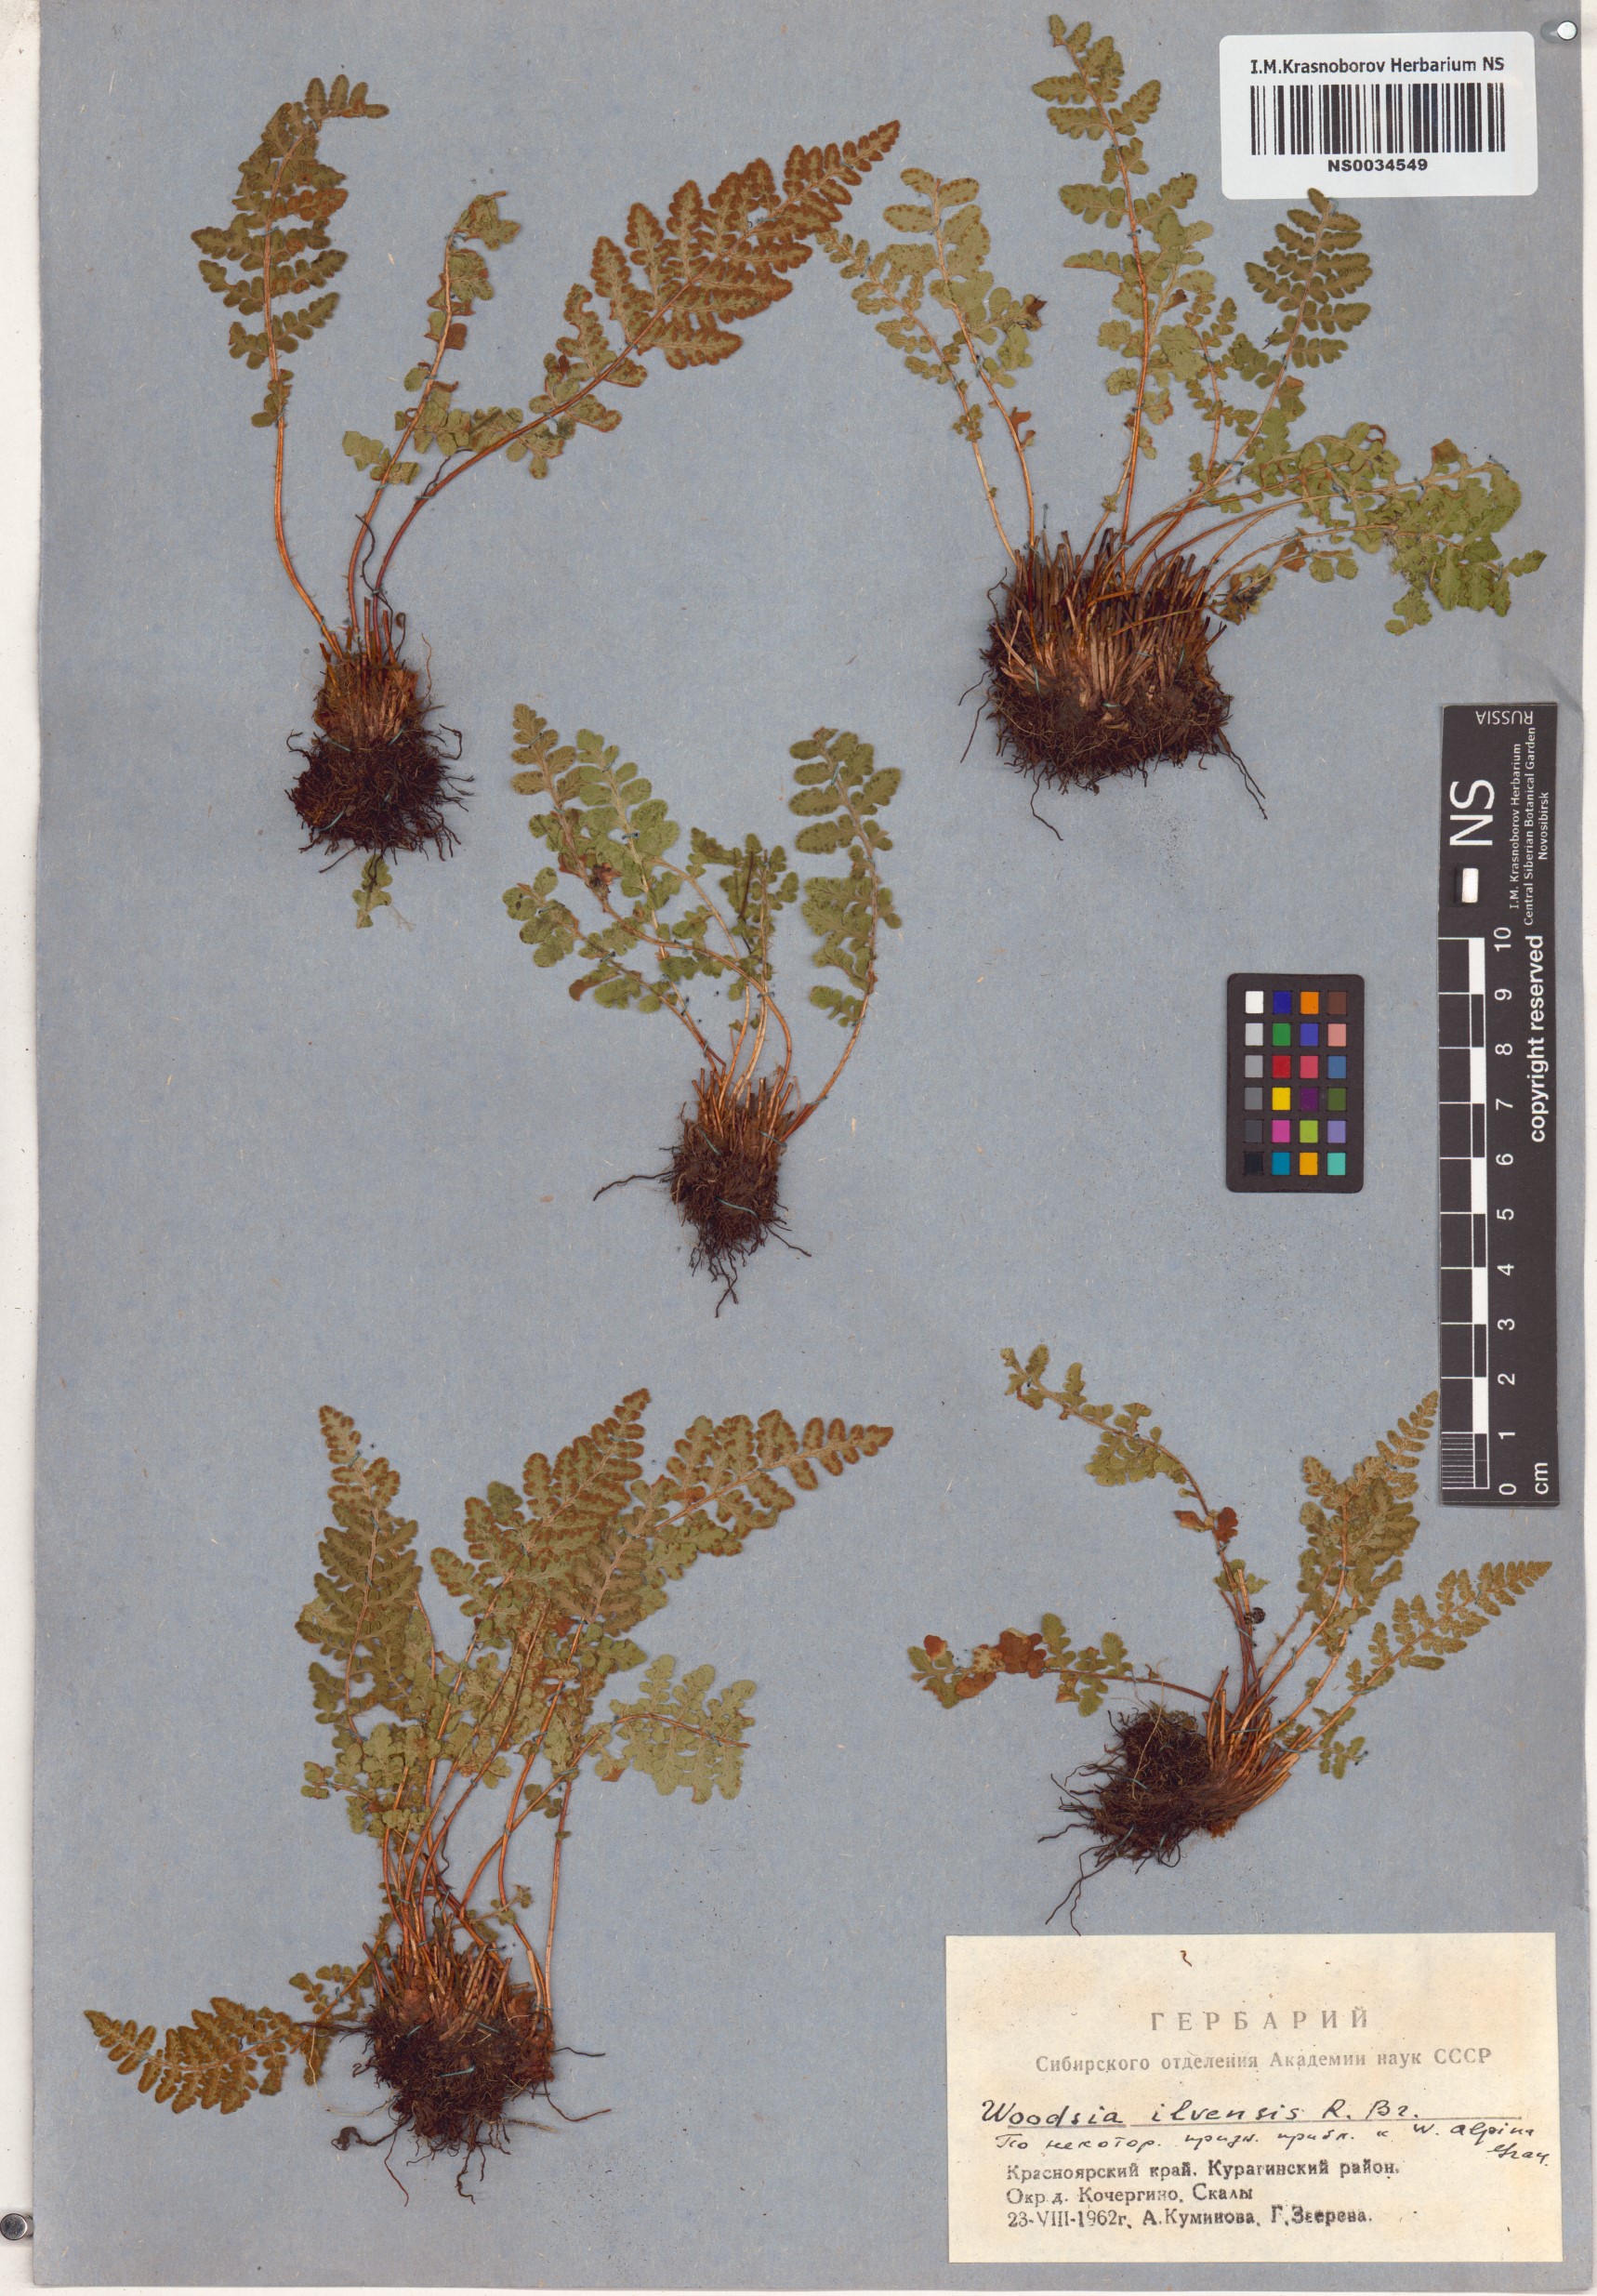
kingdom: Plantae
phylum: Tracheophyta
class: Polypodiopsida
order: Polypodiales
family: Woodsiaceae
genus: Woodsia
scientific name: Woodsia ilvensis
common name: Fragrant woodsia
